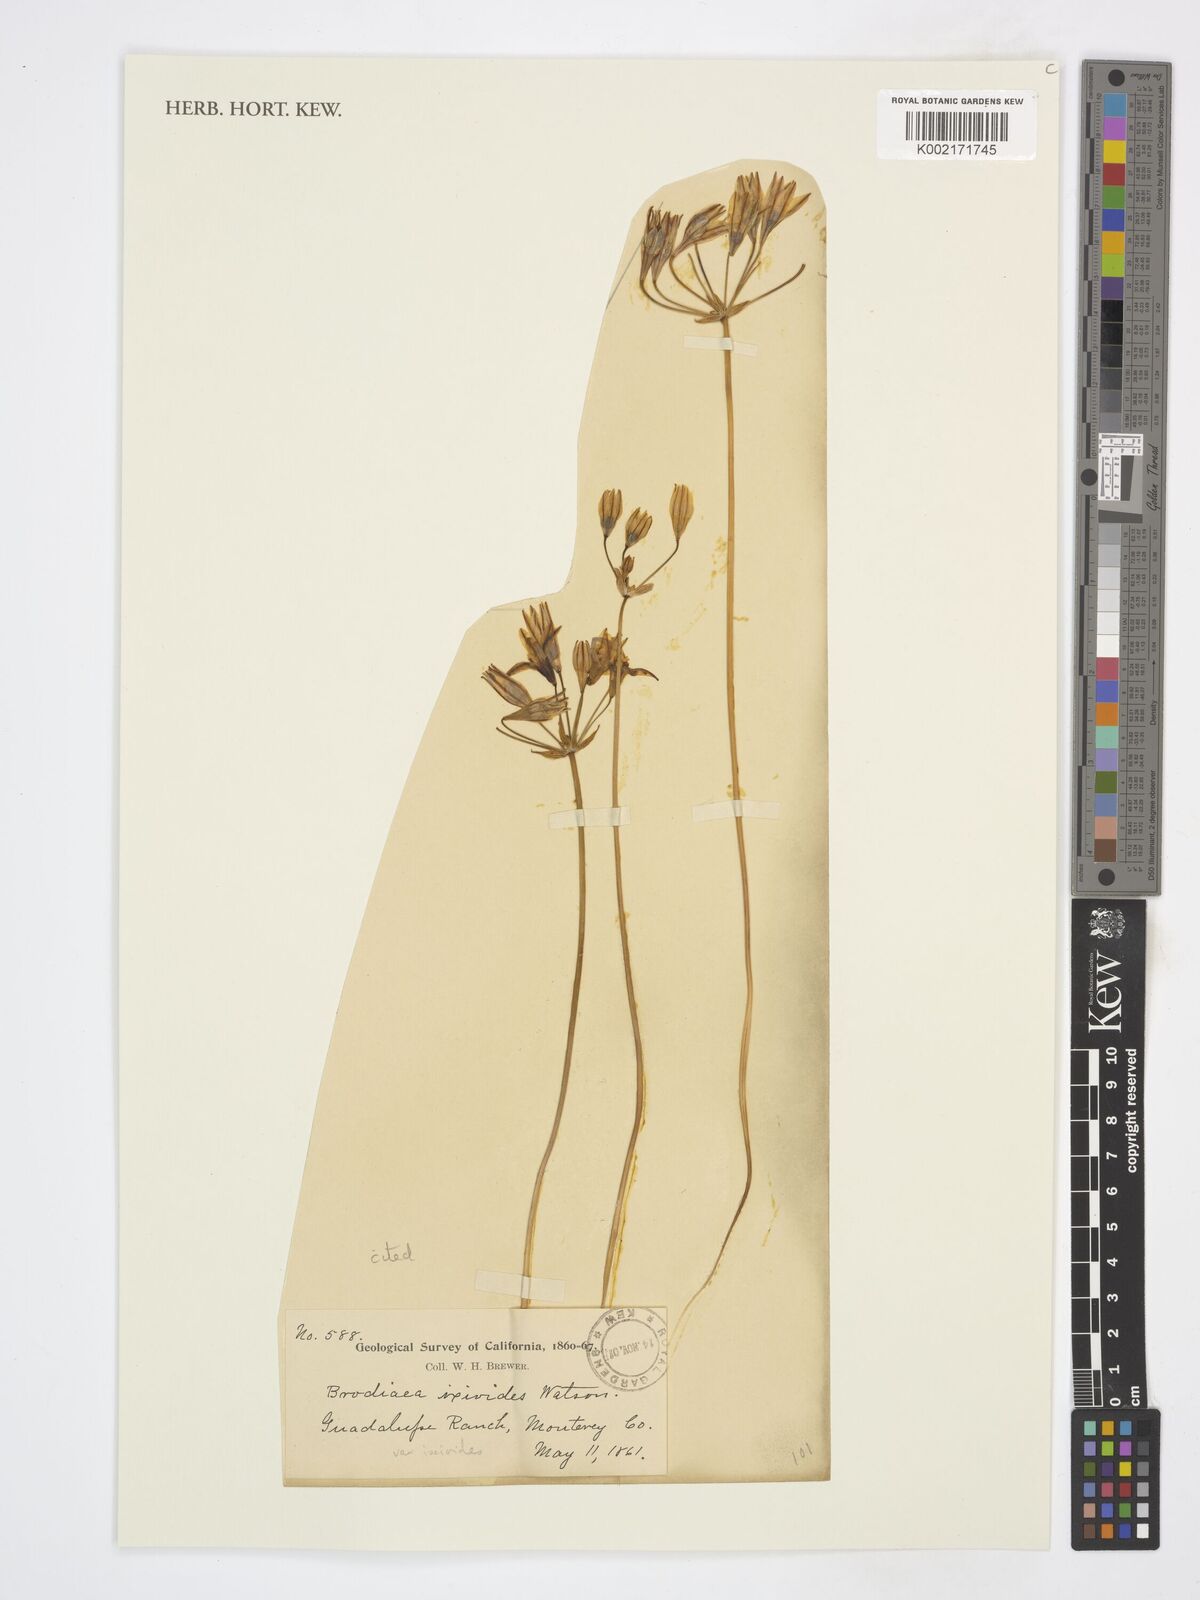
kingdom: Plantae
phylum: Tracheophyta
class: Liliopsida
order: Asparagales
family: Asparagaceae
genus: Triteleia
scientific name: Triteleia ixioides
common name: Yellow-brodiaea
